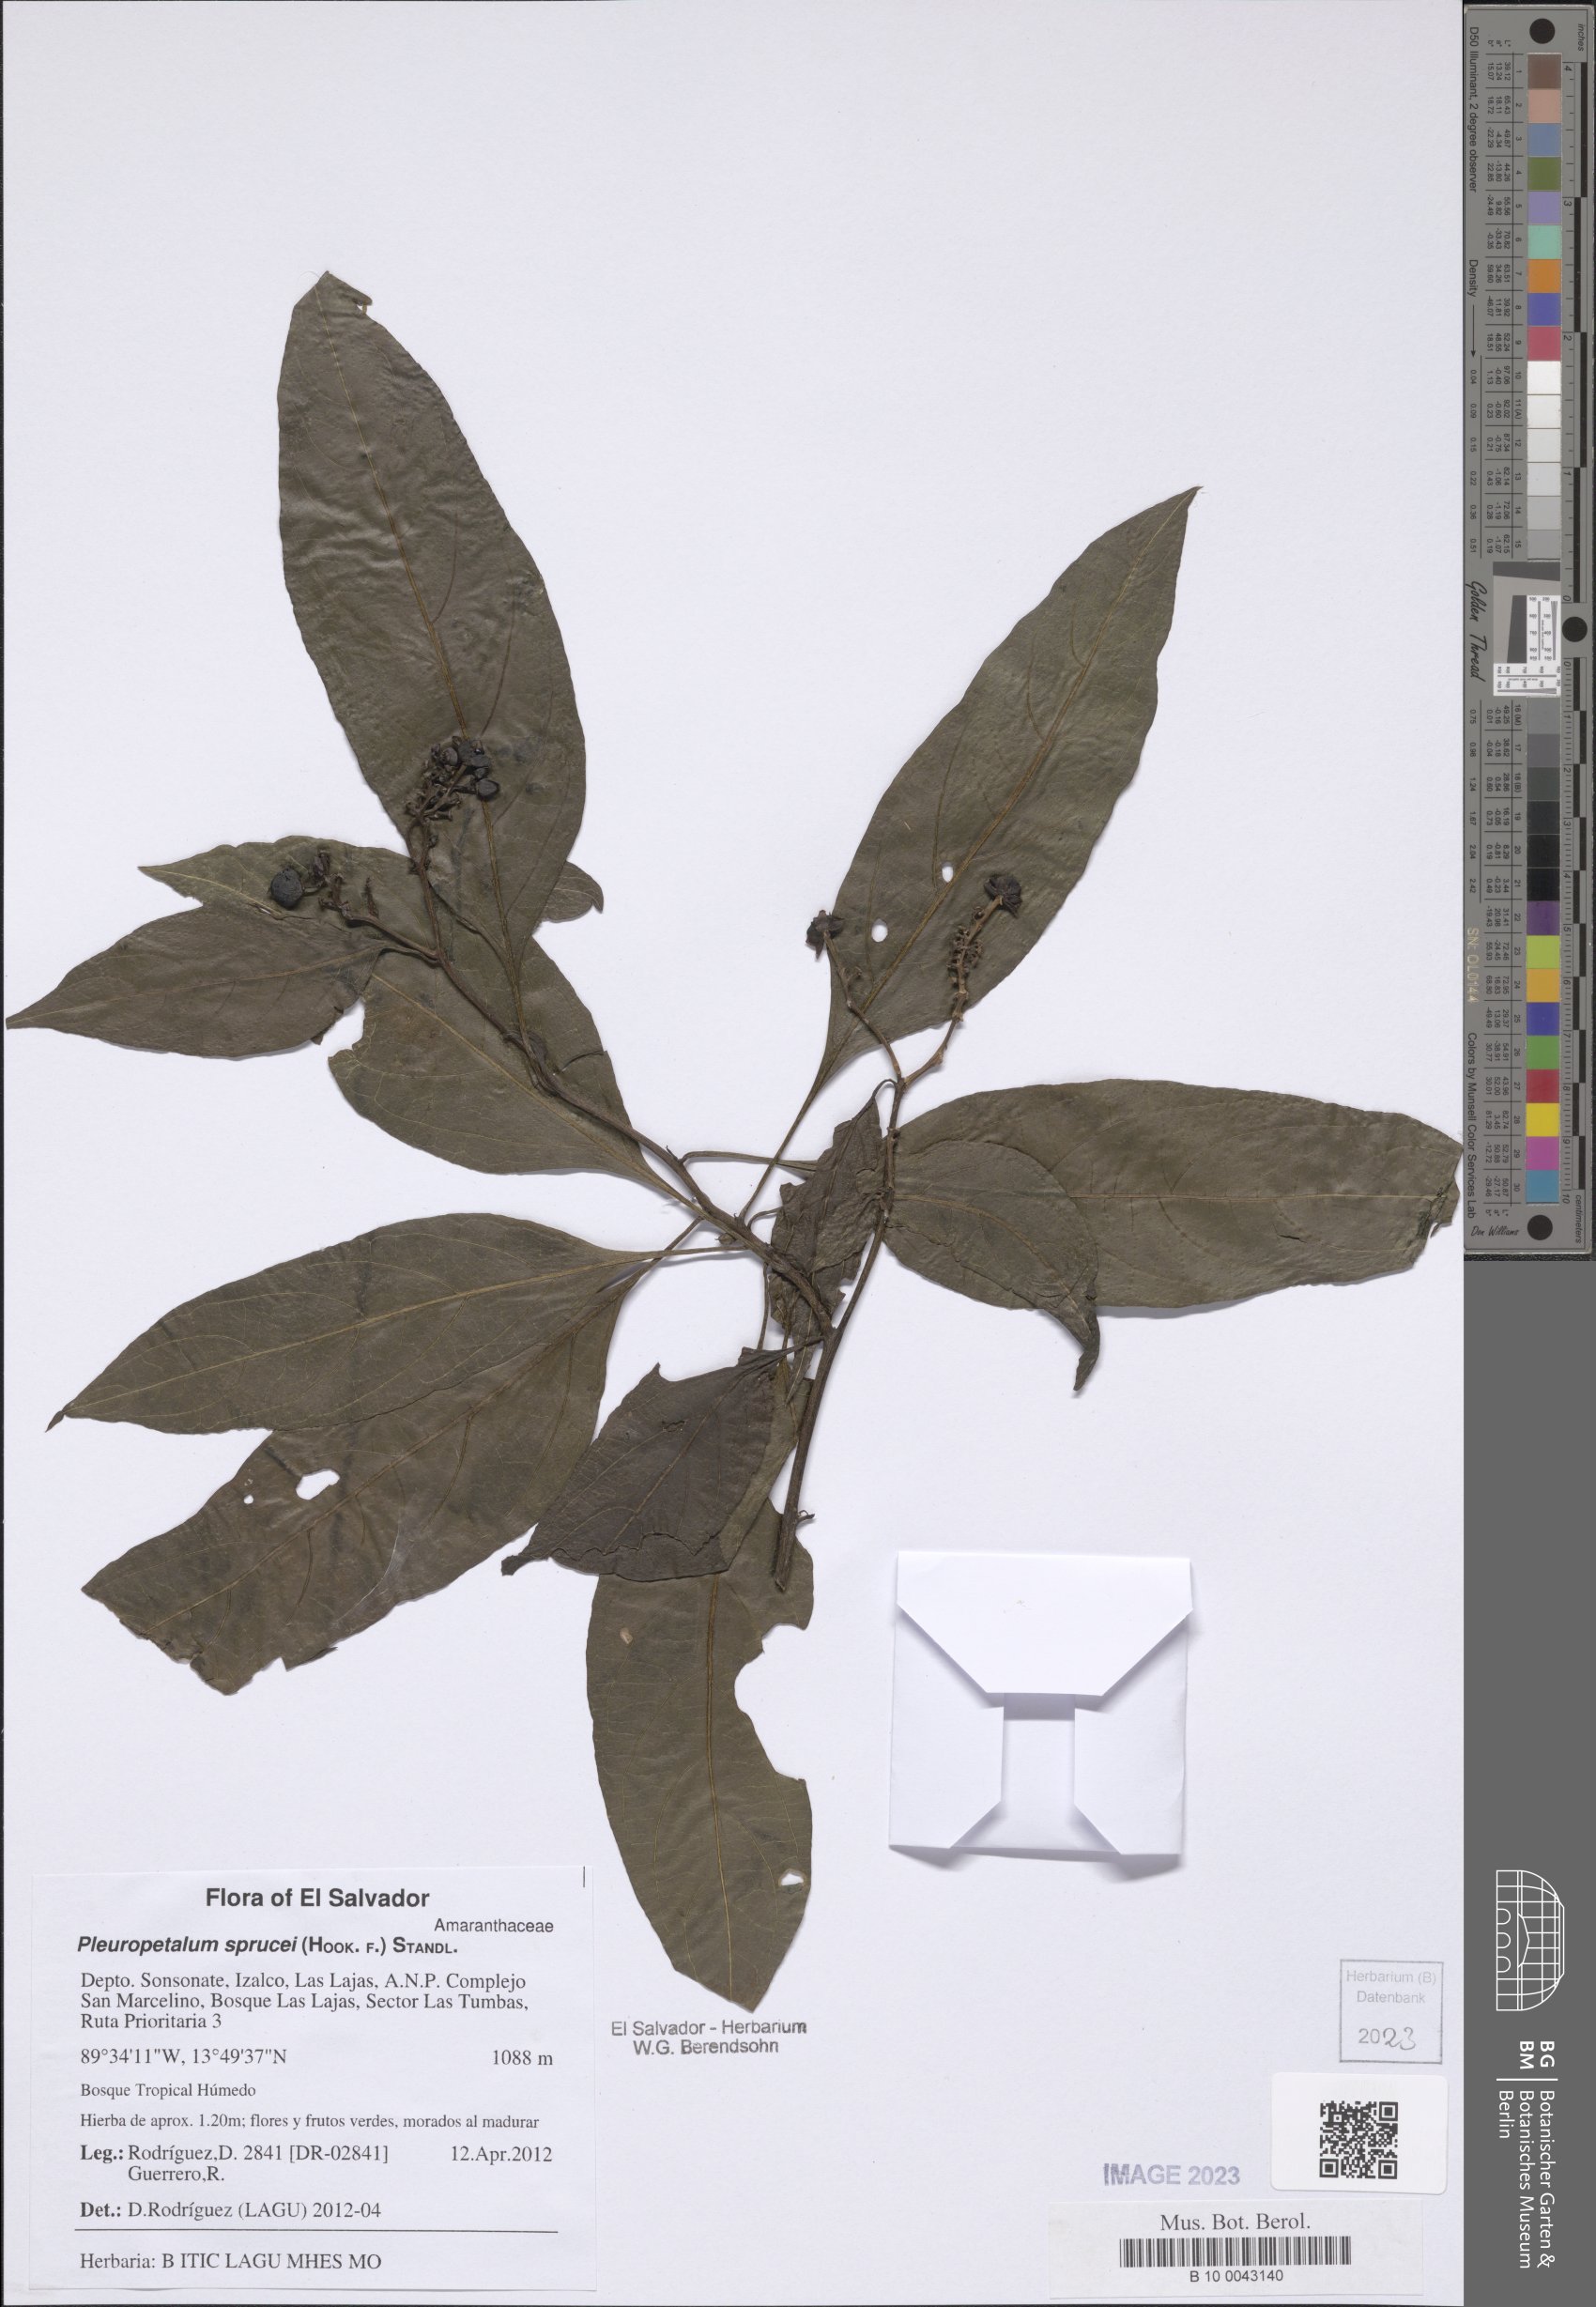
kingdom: Plantae
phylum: Tracheophyta
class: Magnoliopsida
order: Caryophyllales
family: Amaranthaceae
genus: Pleuropetalum
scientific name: Pleuropetalum sprucei
